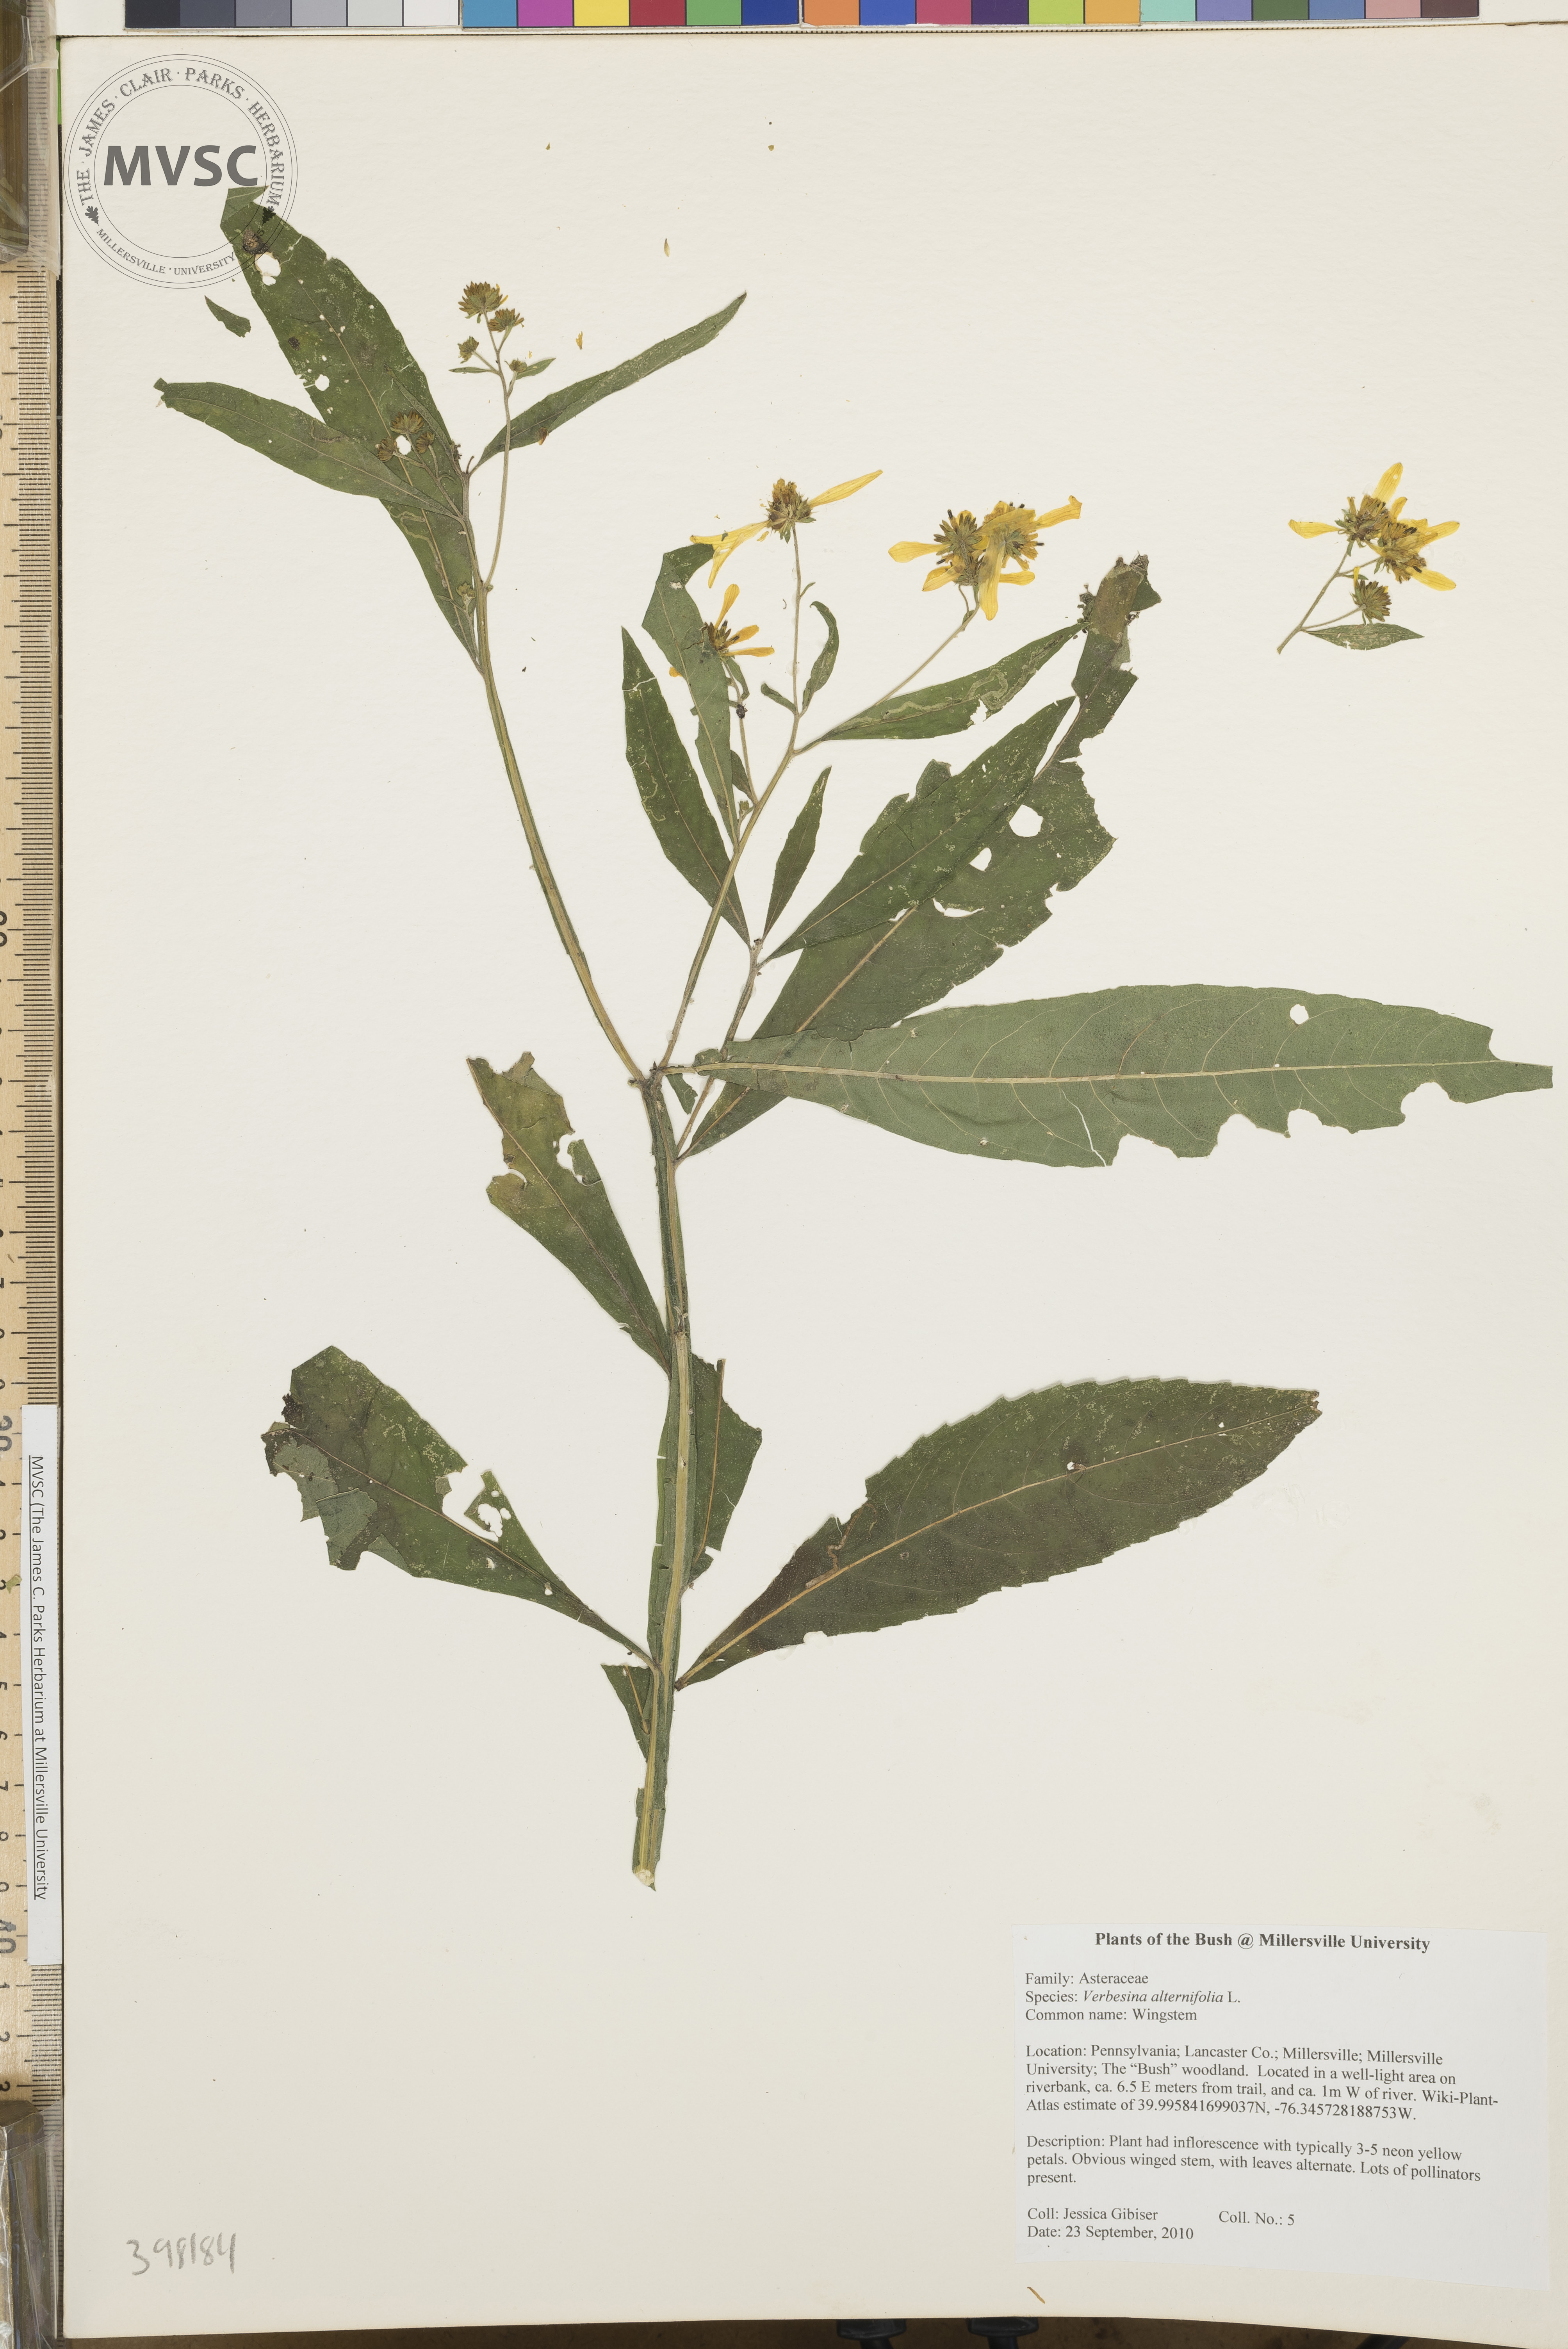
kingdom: Plantae
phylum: Tracheophyta
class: Magnoliopsida
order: Asterales
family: Asteraceae
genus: Verbesina
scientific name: Verbesina alternifolia
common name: Wingstem
